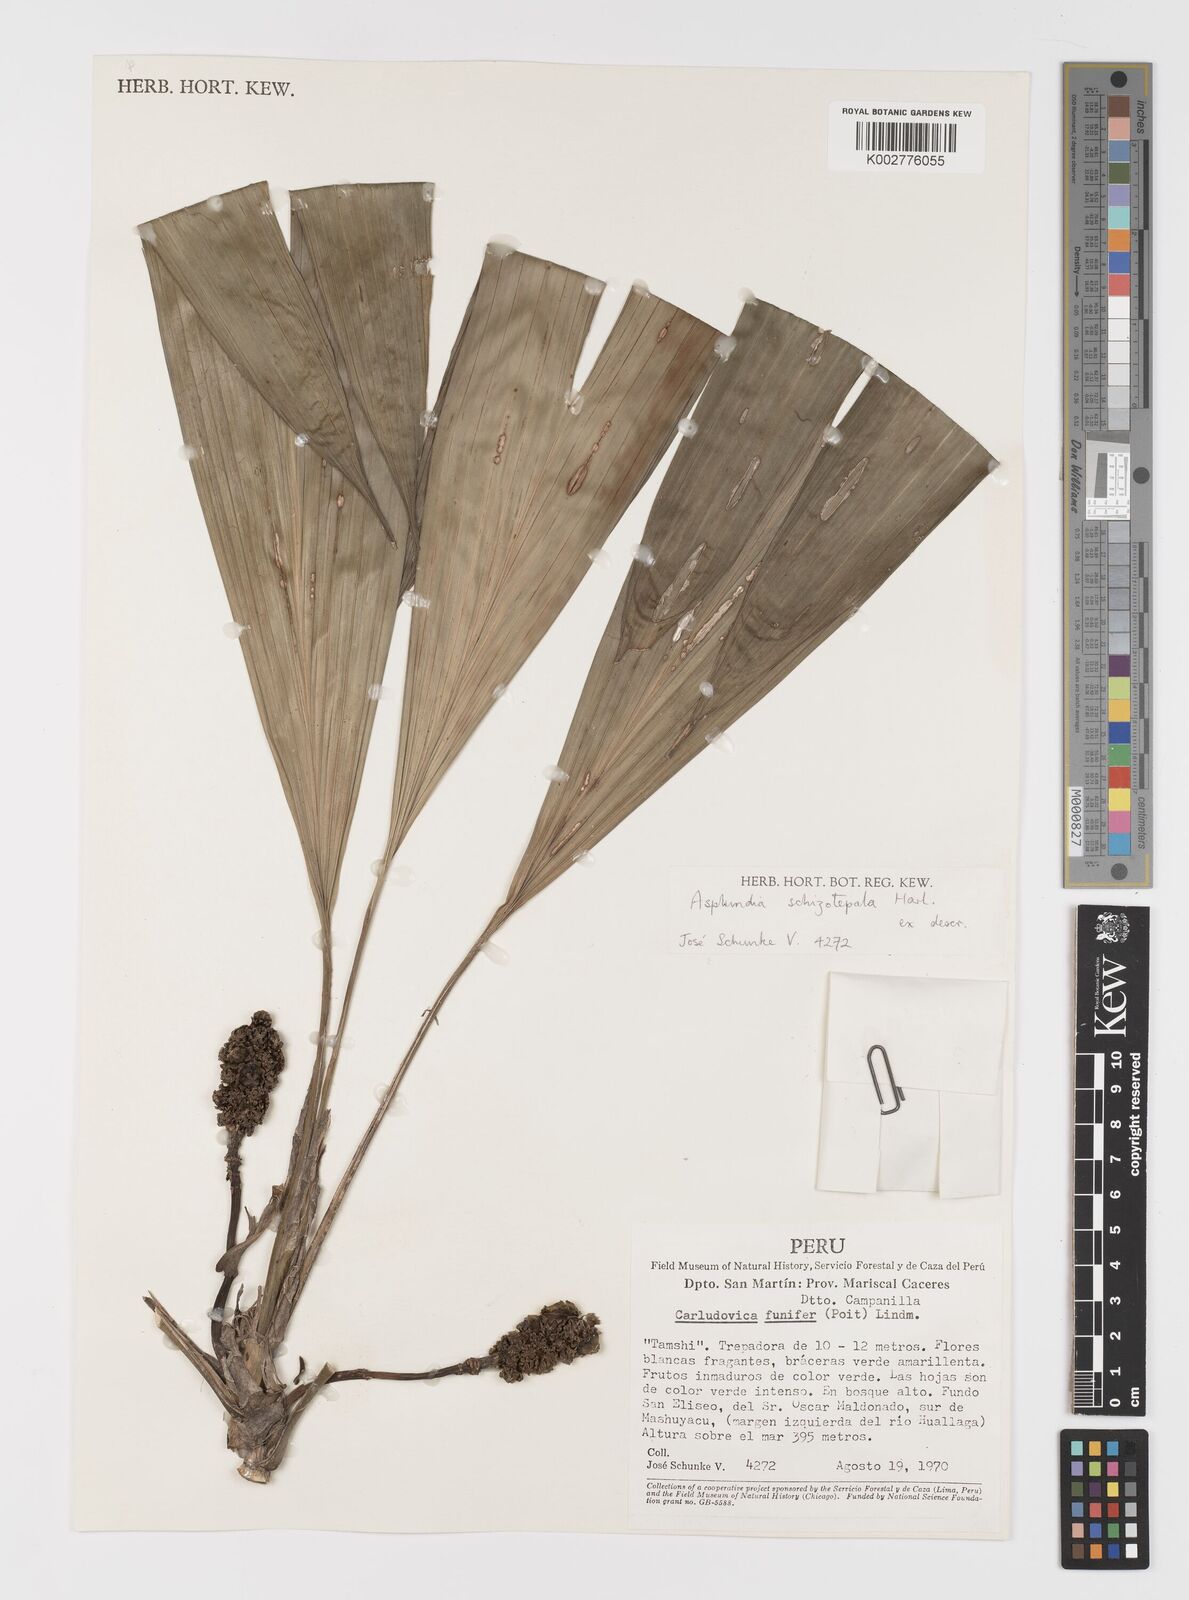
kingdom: Plantae
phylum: Tracheophyta
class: Liliopsida
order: Pandanales
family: Cyclanthaceae
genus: Asplundia
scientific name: Asplundia schizotepala
